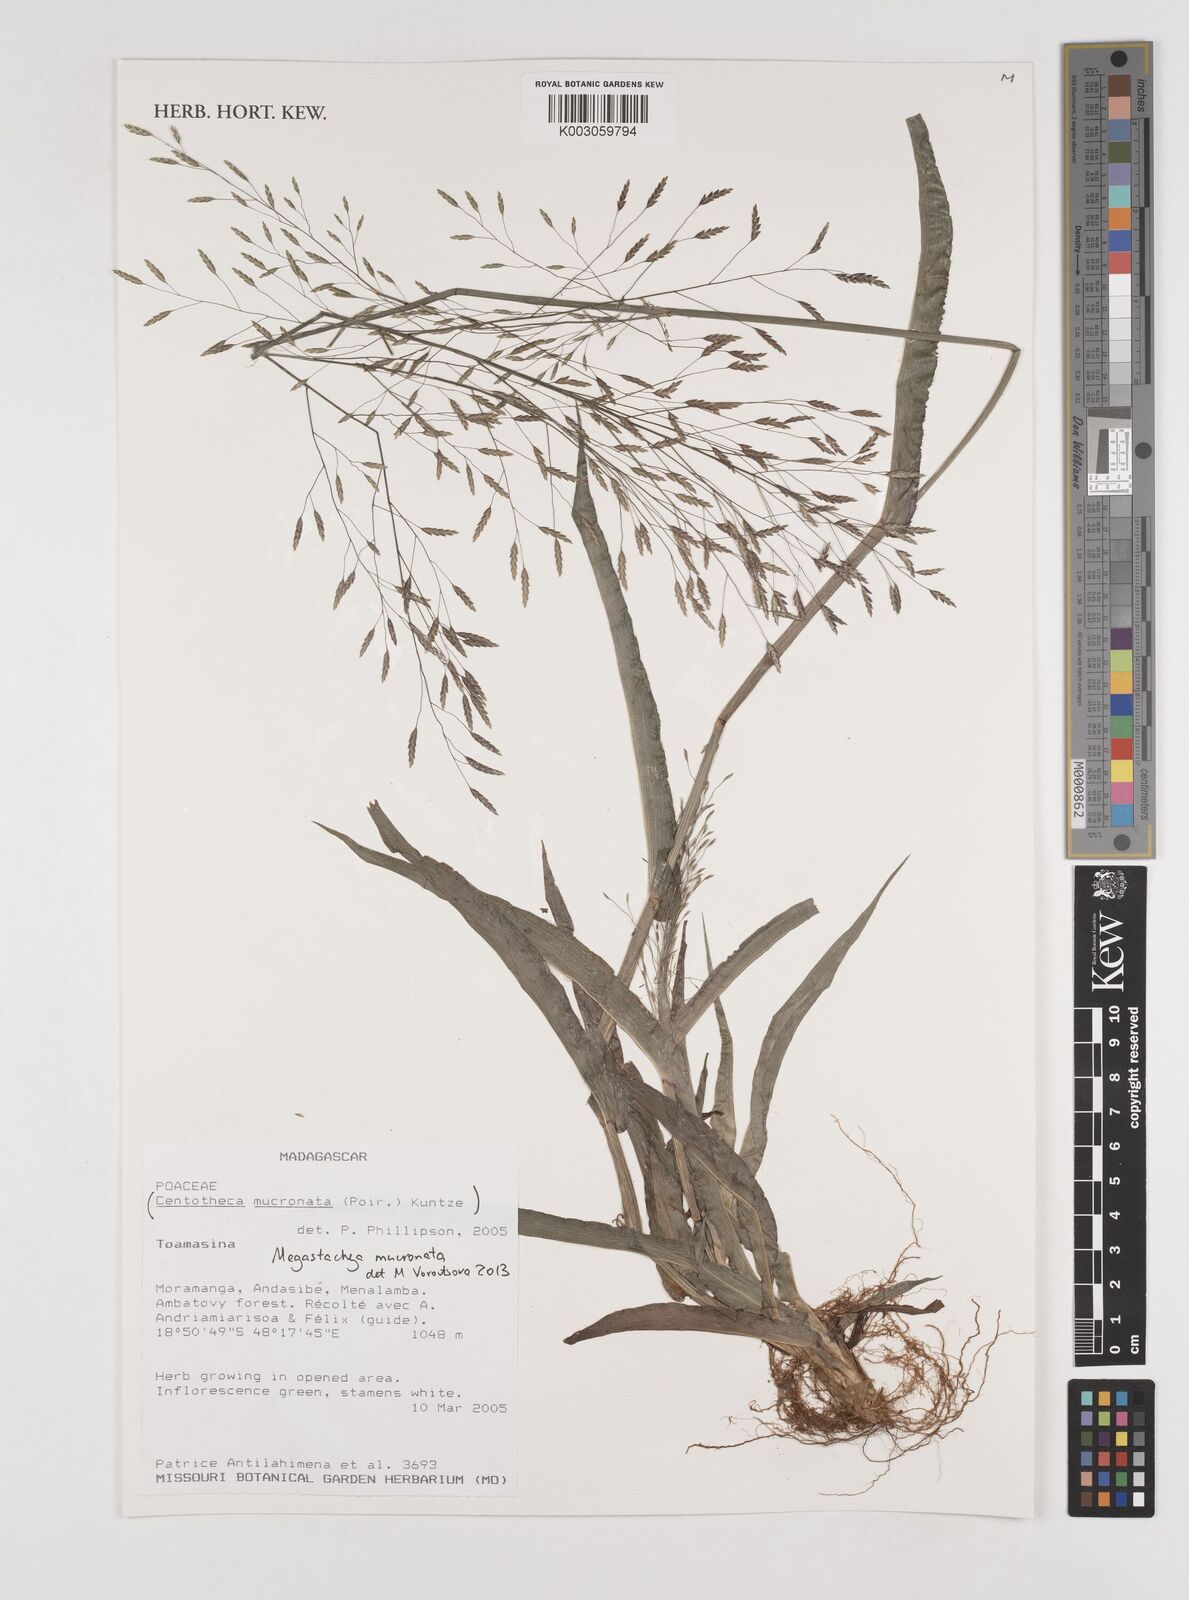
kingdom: Plantae
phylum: Tracheophyta
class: Liliopsida
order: Poales
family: Poaceae
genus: Megastachya
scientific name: Megastachya mucronata
